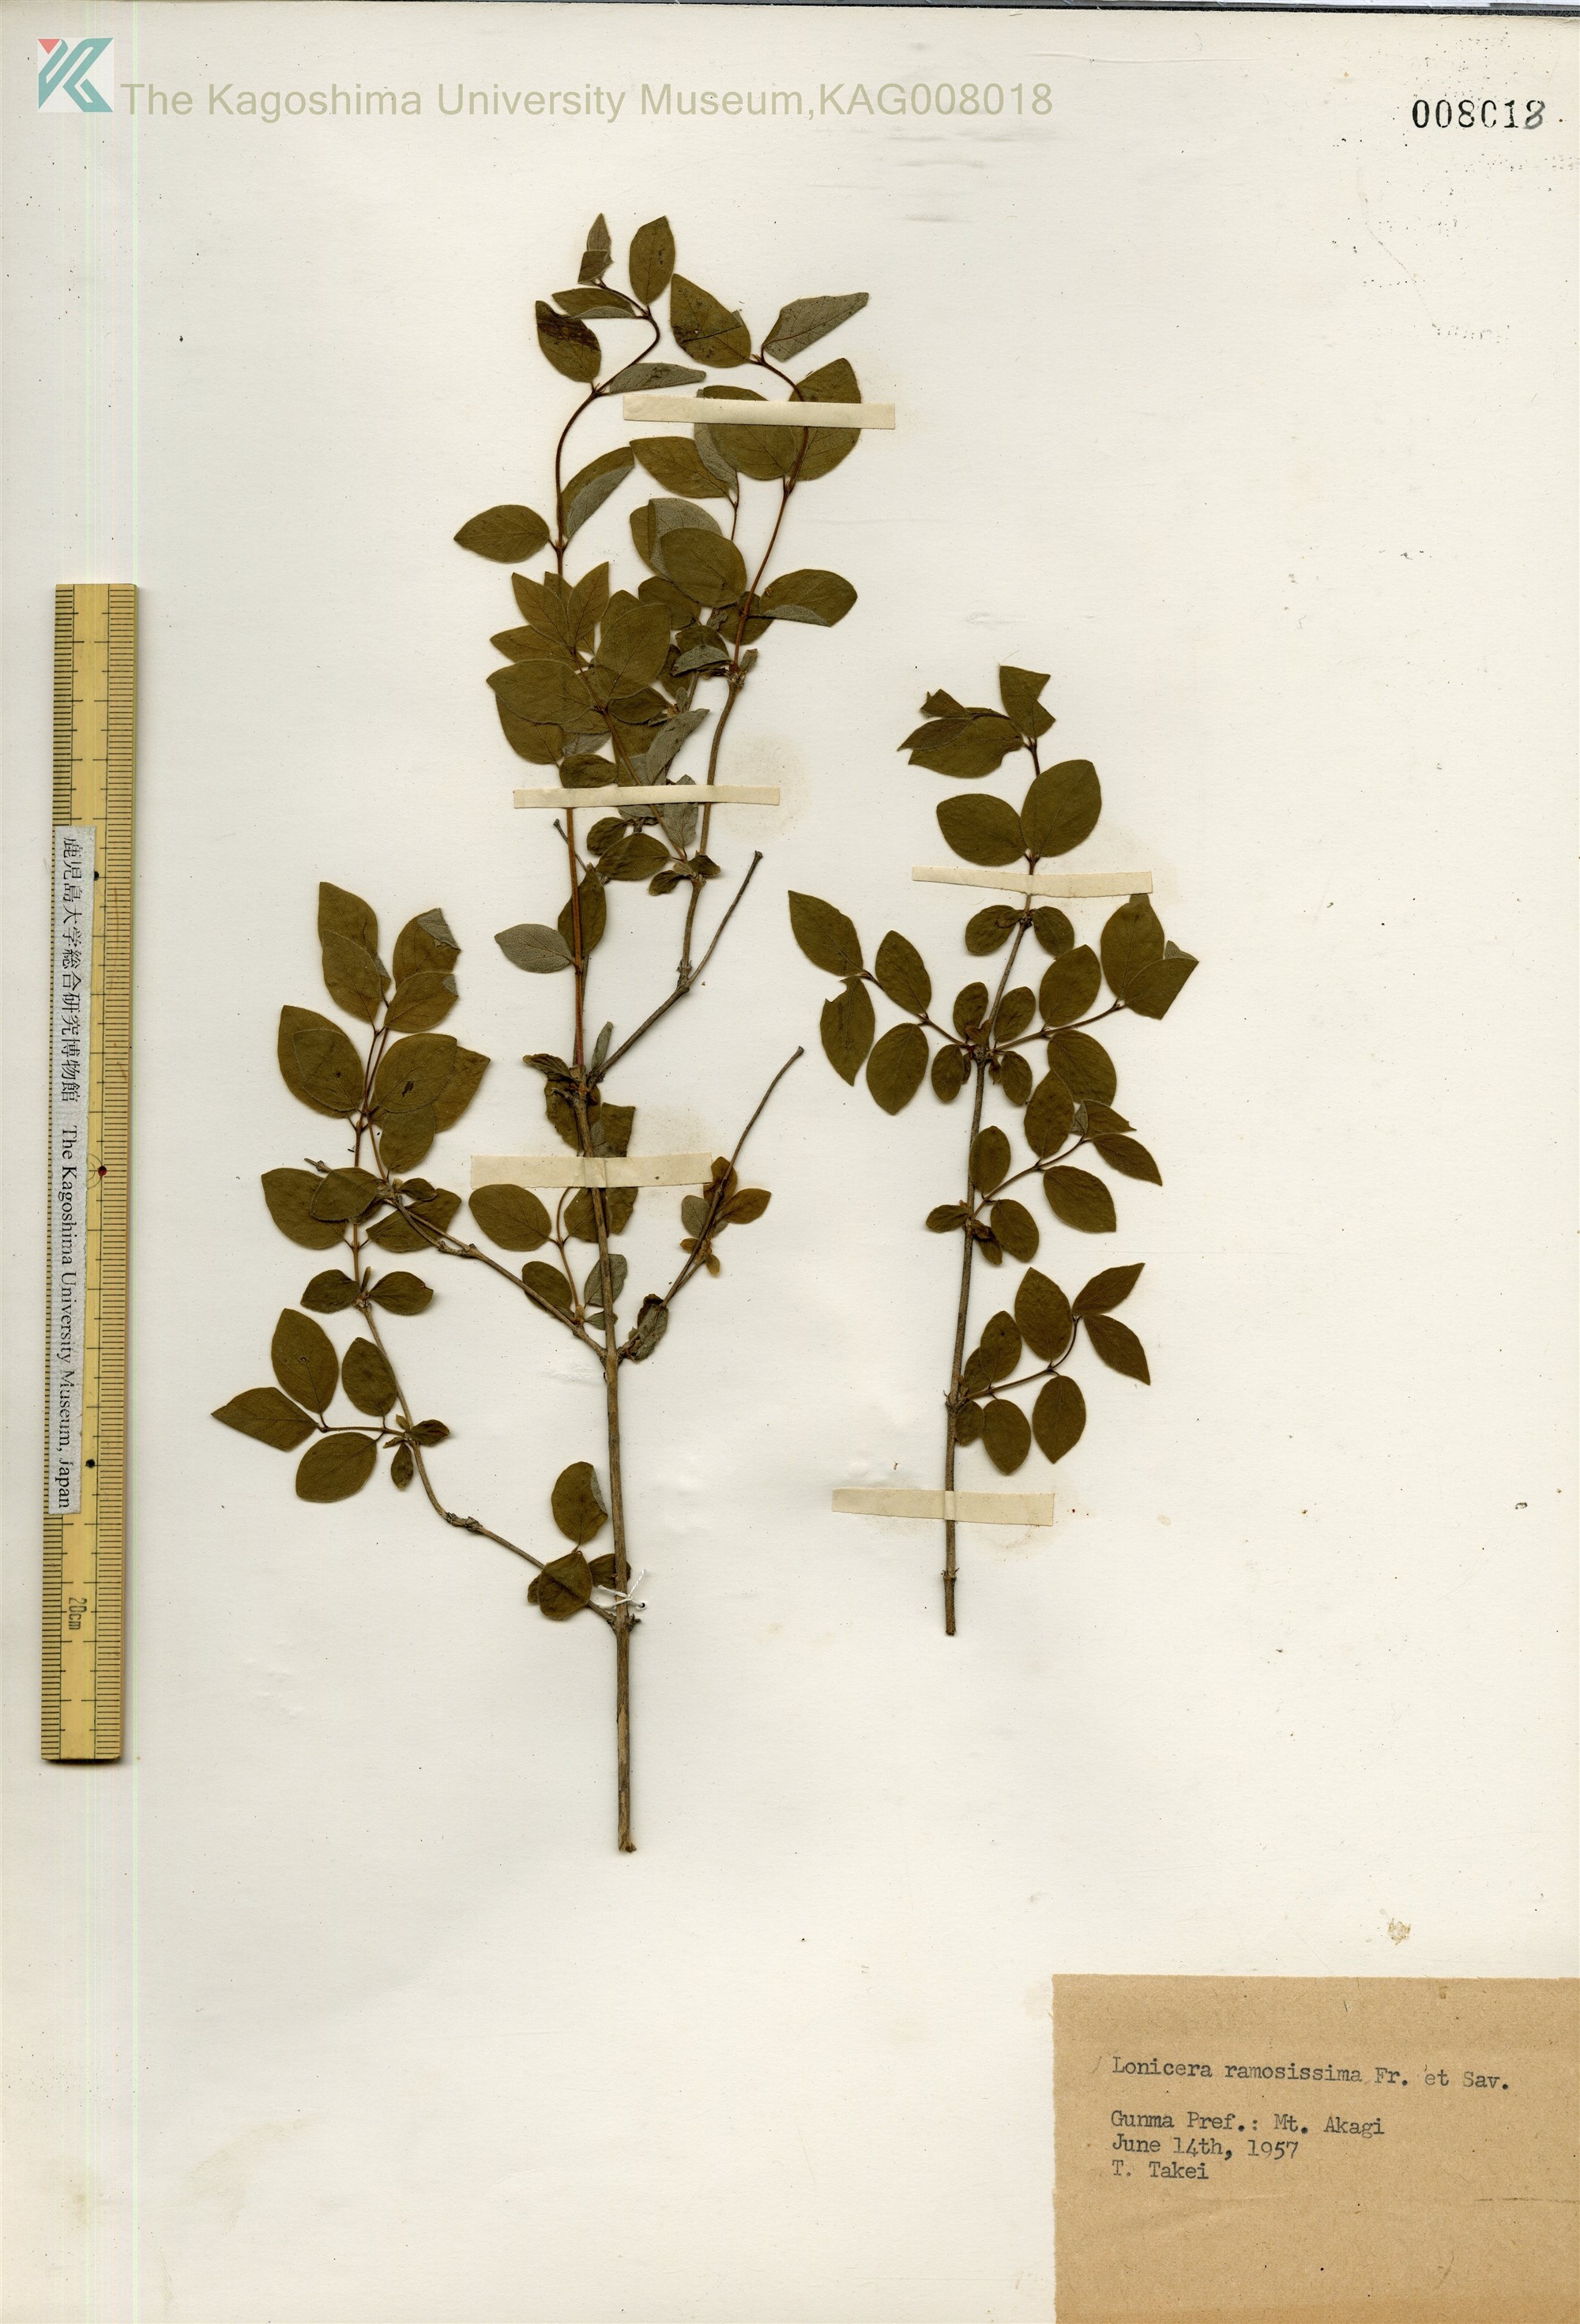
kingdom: Plantae
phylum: Tracheophyta
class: Magnoliopsida
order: Dipsacales
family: Caprifoliaceae
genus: Lonicera
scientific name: Lonicera demissa
